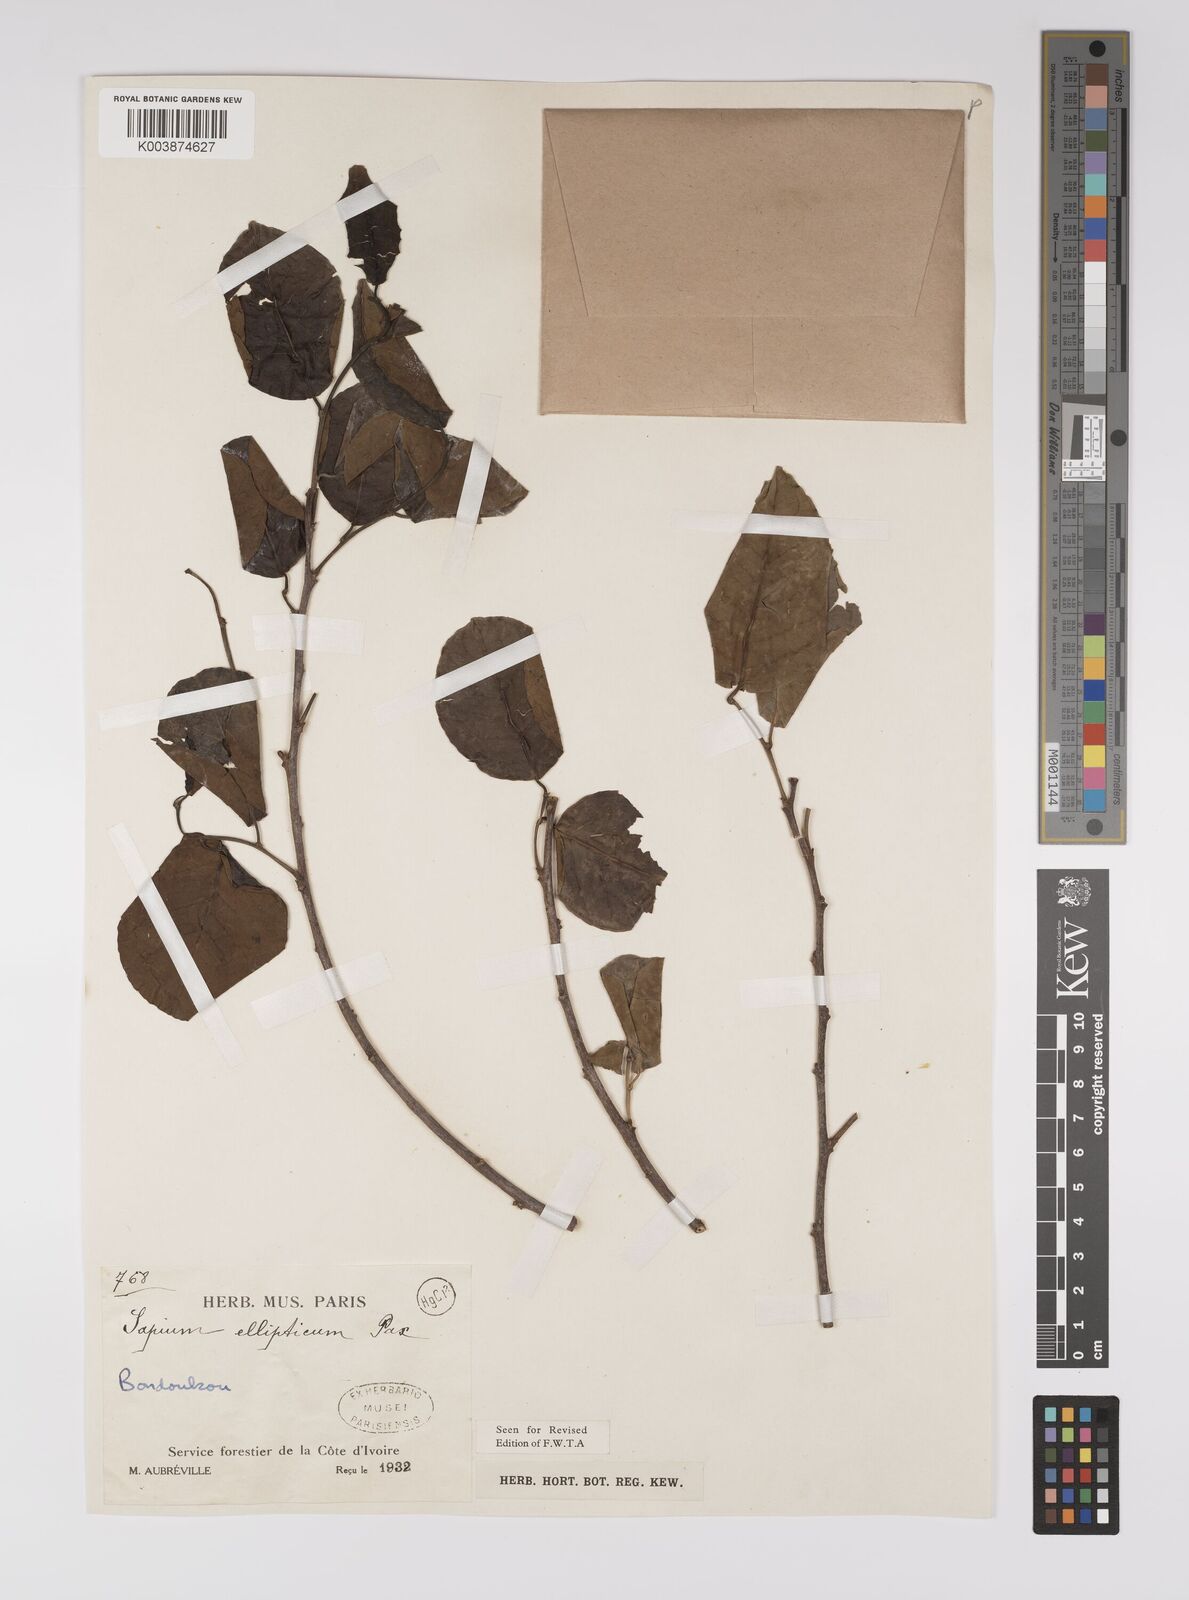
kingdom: Plantae
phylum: Tracheophyta
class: Magnoliopsida
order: Malpighiales
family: Euphorbiaceae
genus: Shirakiopsis
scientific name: Shirakiopsis elliptica
